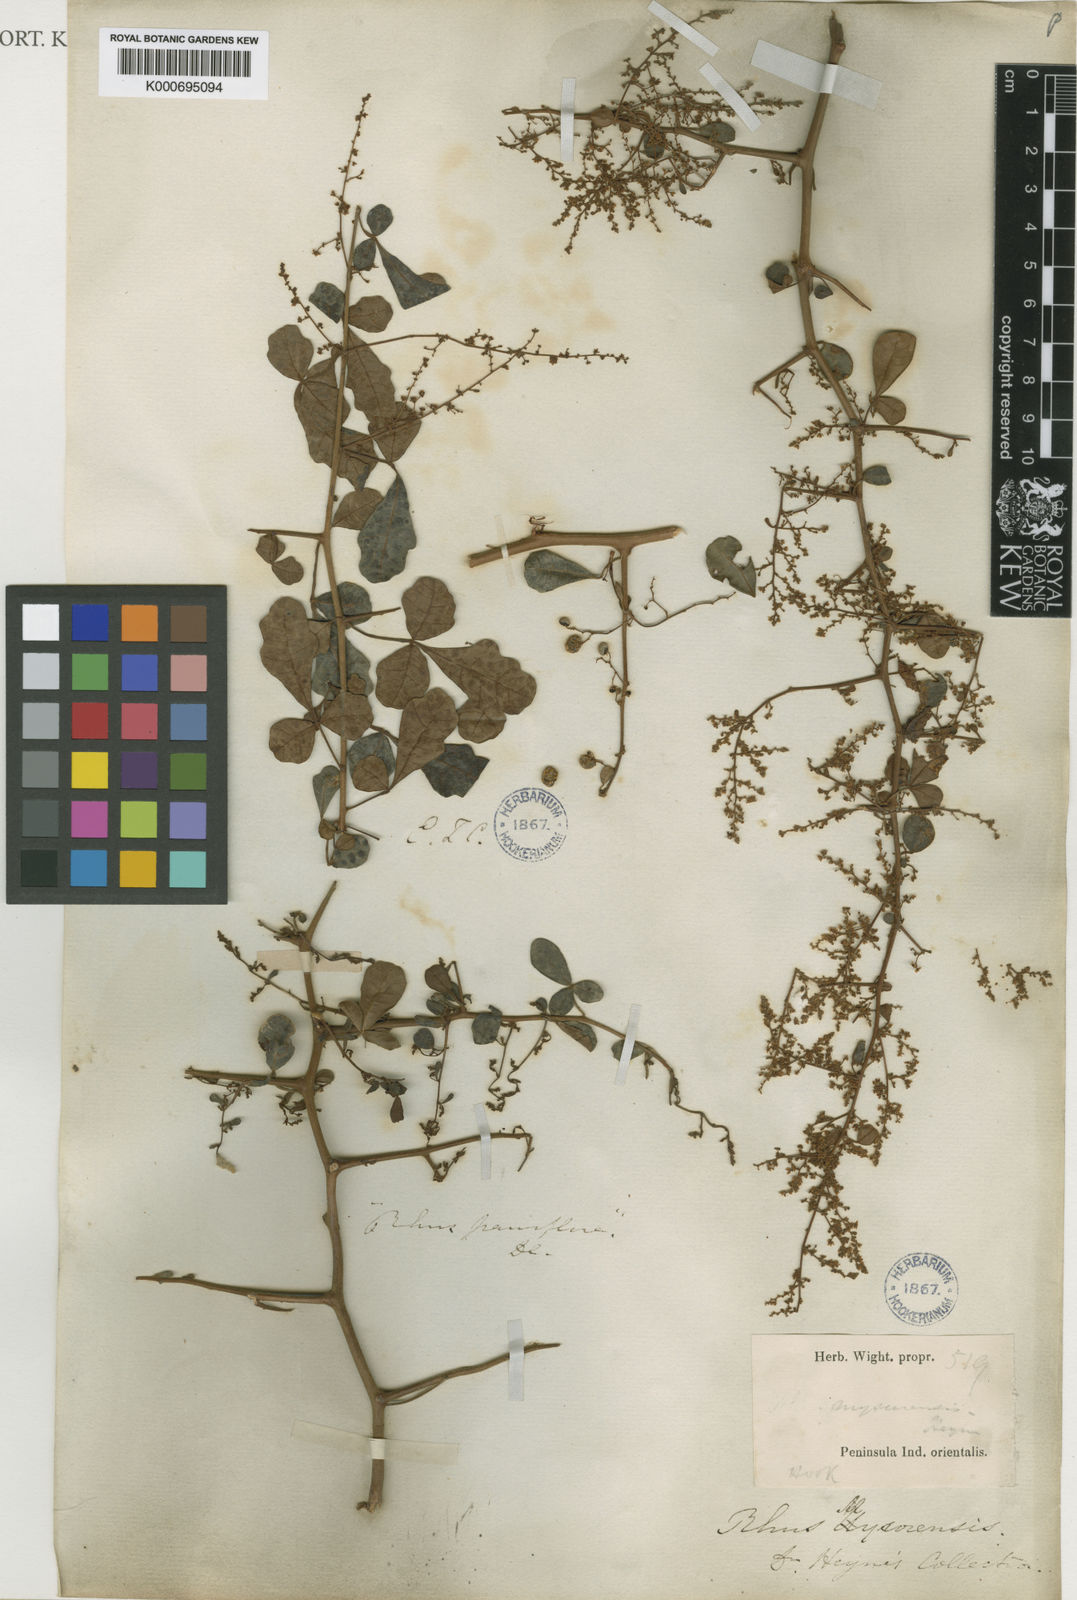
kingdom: Plantae
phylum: Tracheophyta
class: Magnoliopsida
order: Sapindales
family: Anacardiaceae
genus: Rhus
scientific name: Rhus
